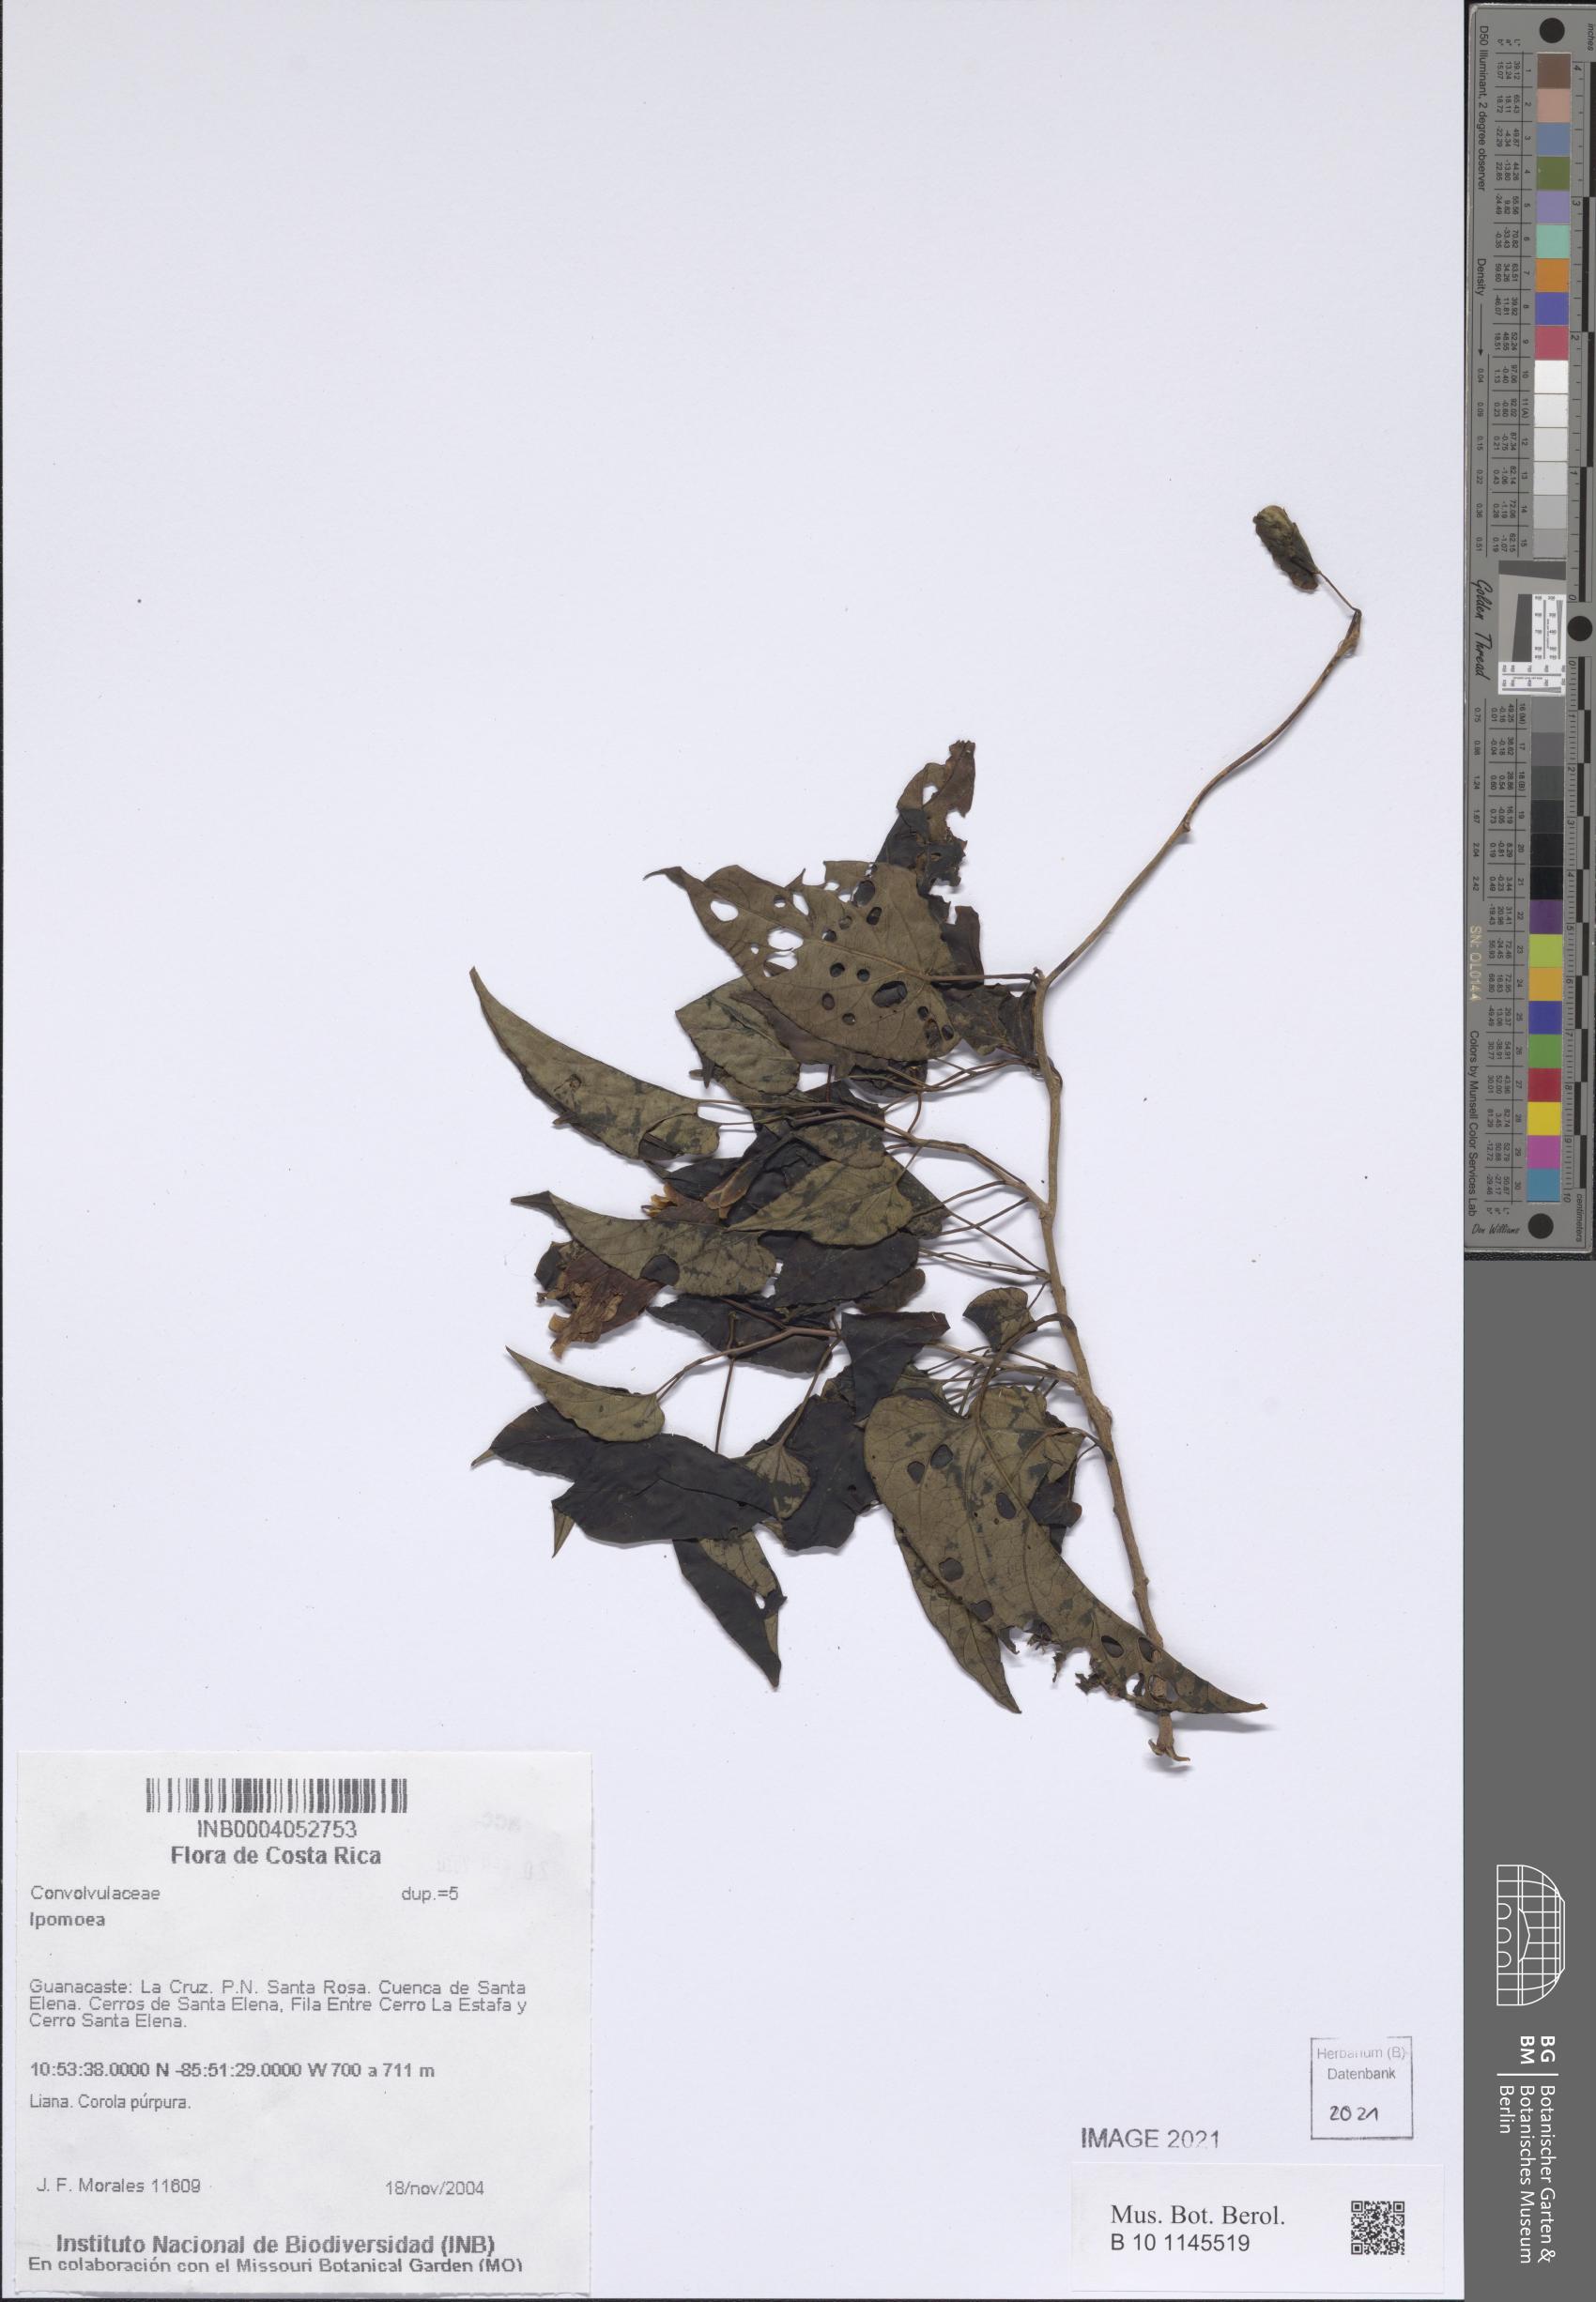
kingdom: Plantae
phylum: Tracheophyta
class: Magnoliopsida
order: Solanales
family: Convolvulaceae
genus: Ipomoea
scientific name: Ipomoea
